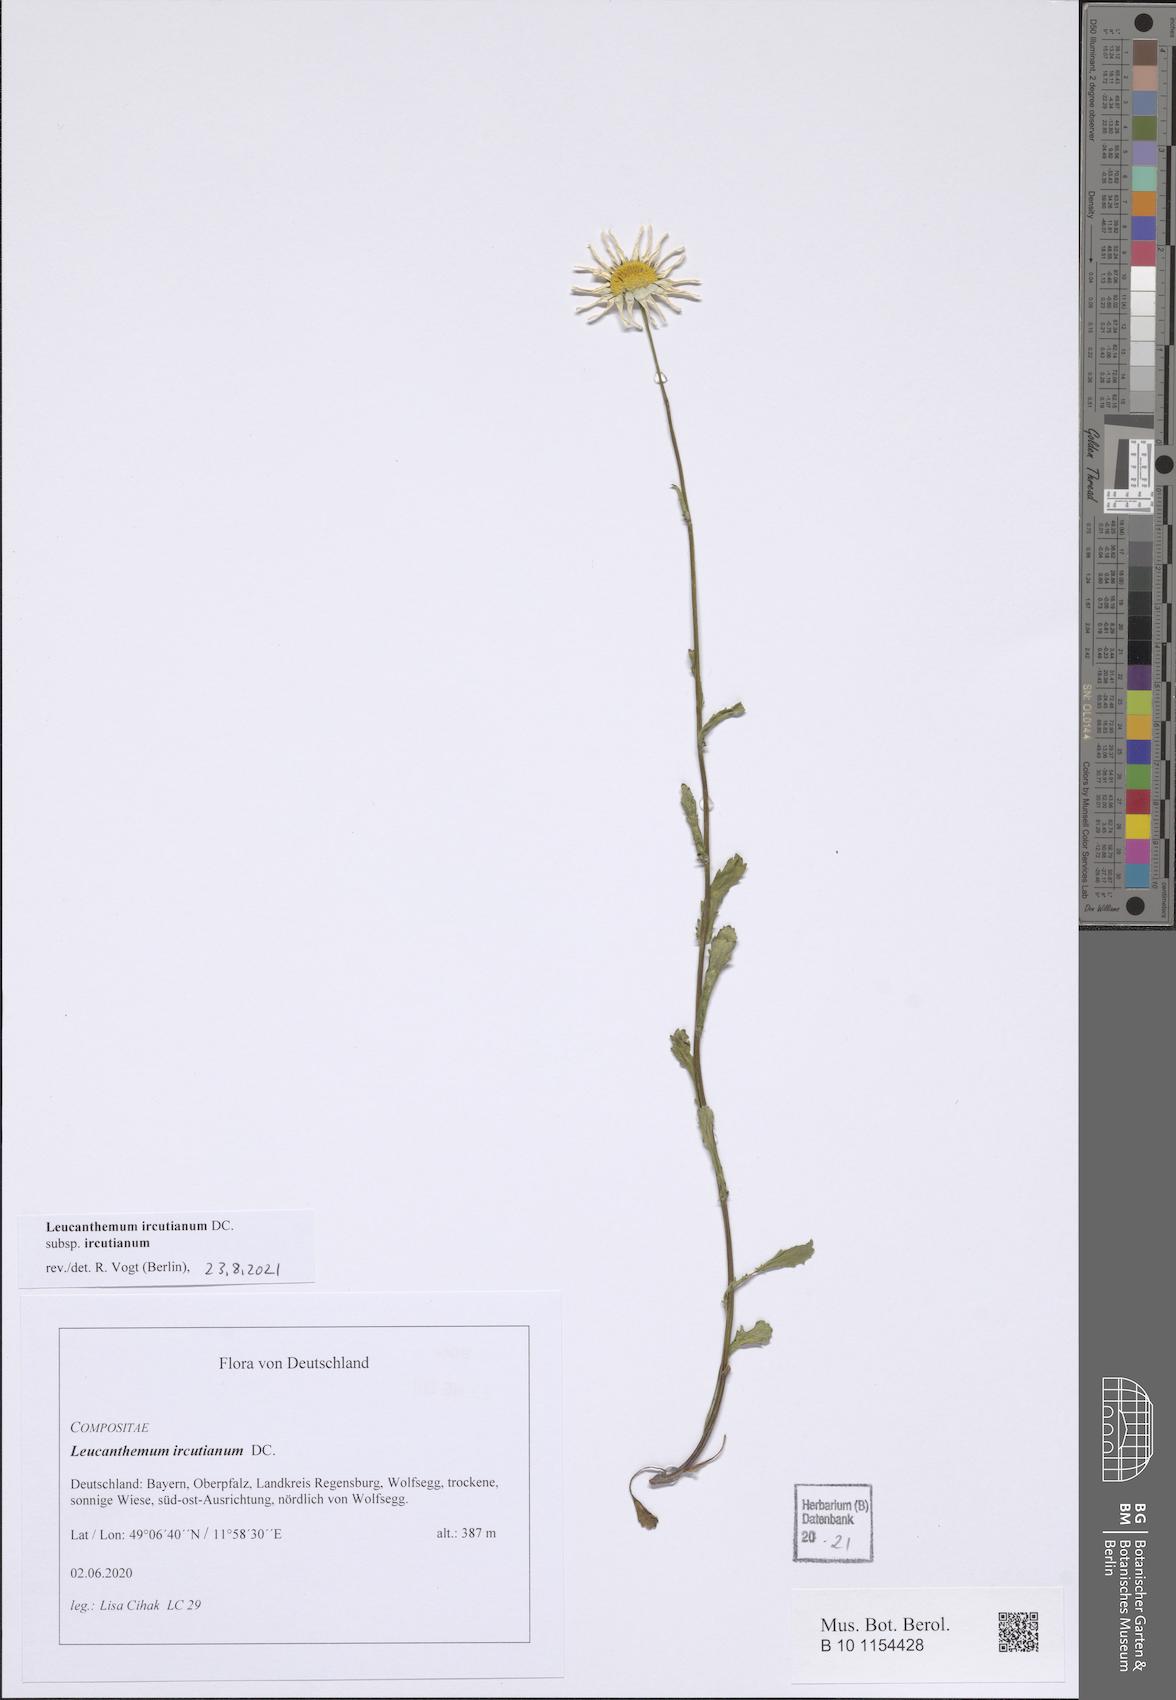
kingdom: Plantae
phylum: Tracheophyta
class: Magnoliopsida
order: Asterales
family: Asteraceae
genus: Leucanthemum
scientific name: Leucanthemum ircutianum
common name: Daisy
